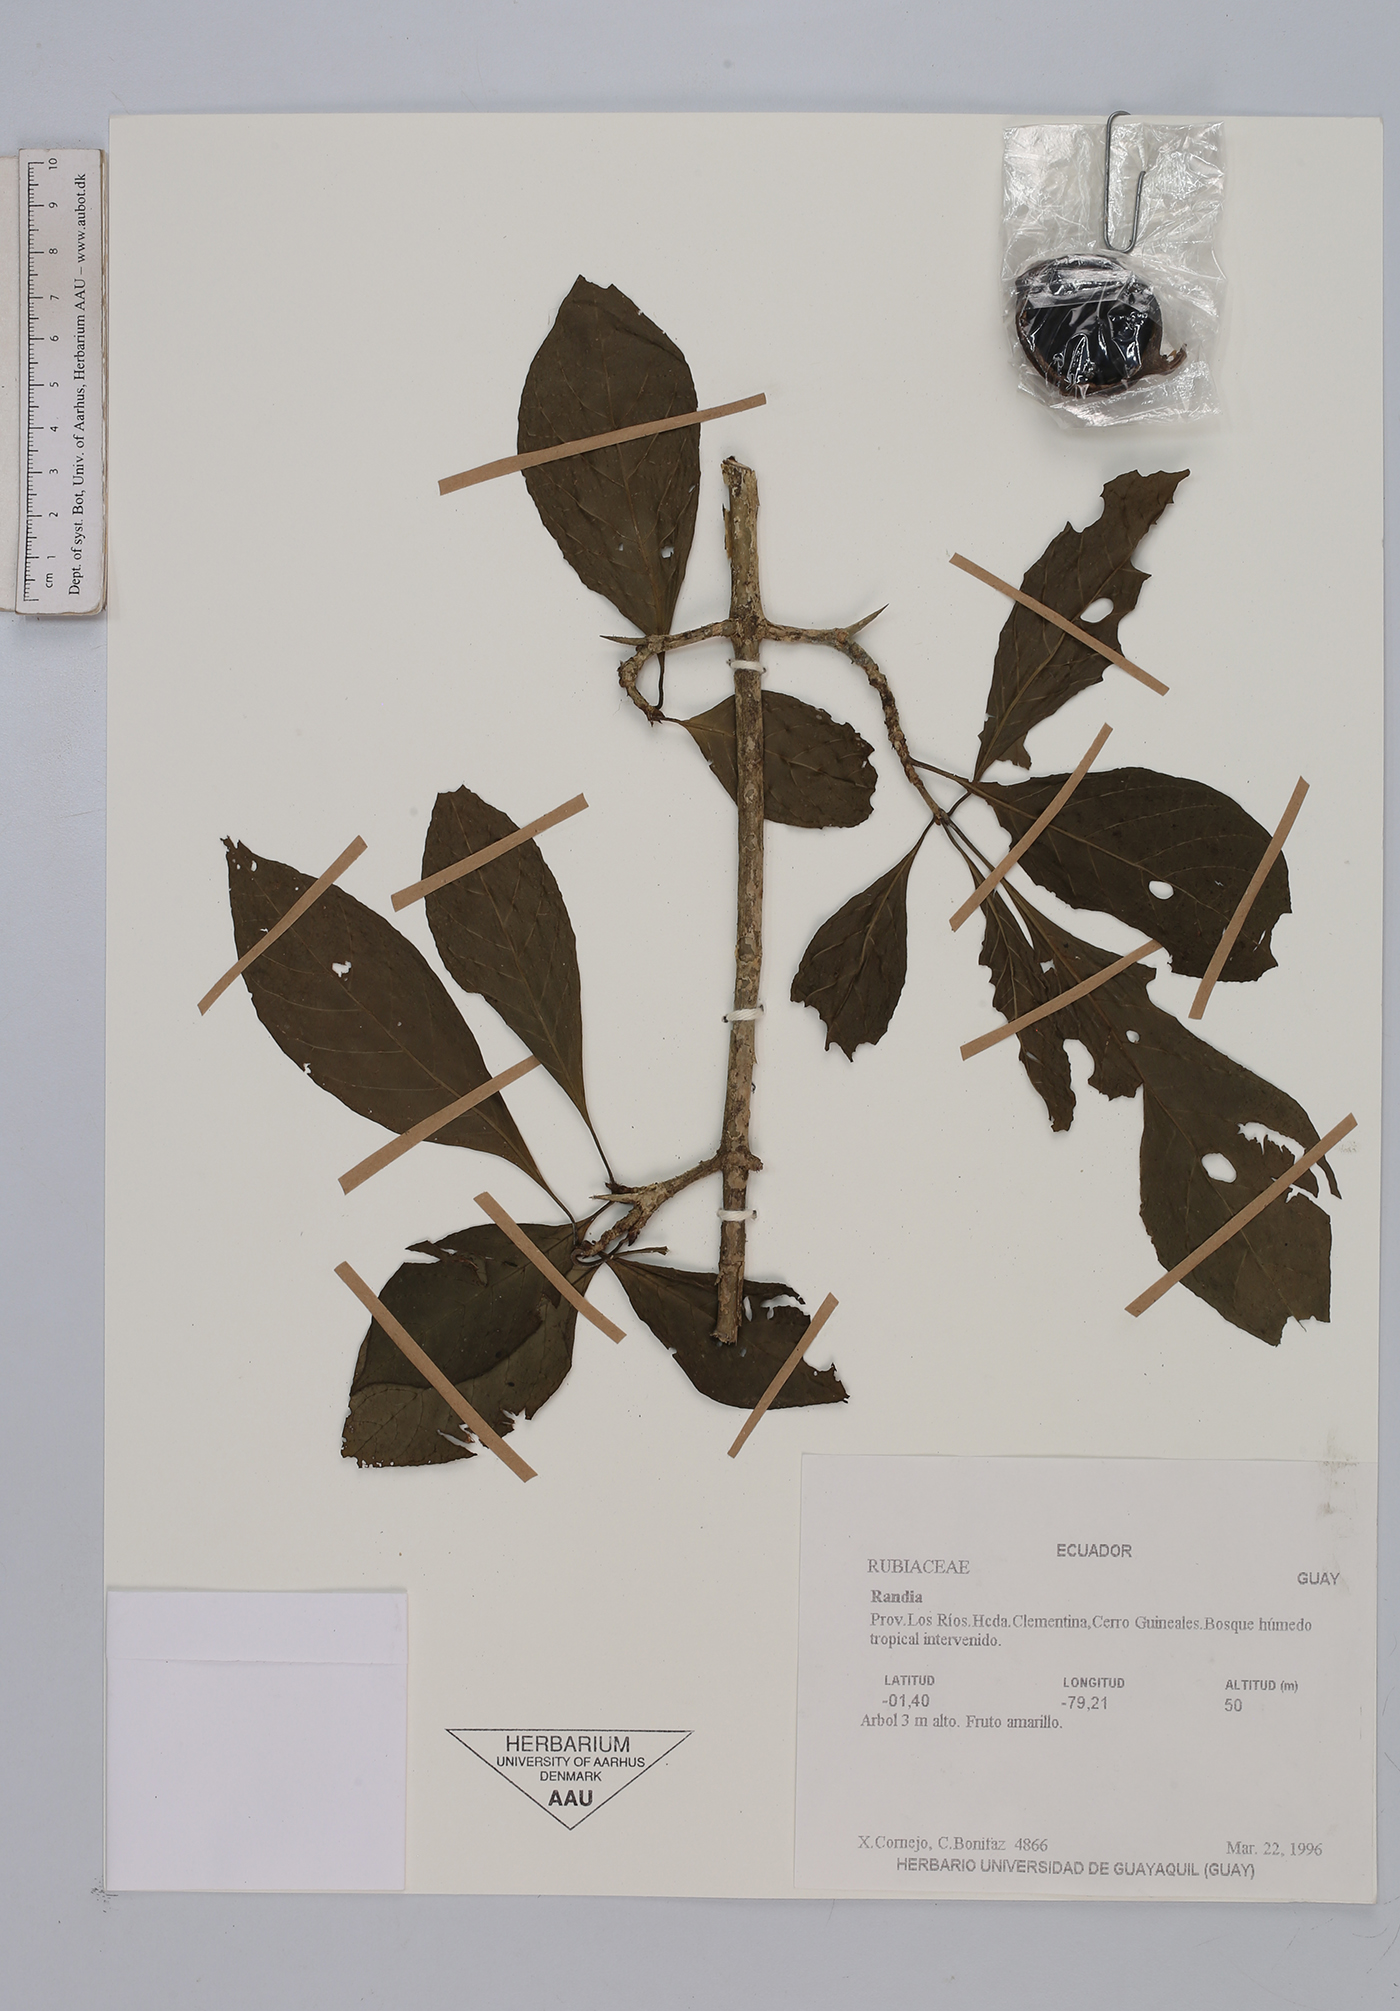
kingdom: Plantae
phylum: Tracheophyta
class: Magnoliopsida
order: Gentianales
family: Rubiaceae
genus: Randia
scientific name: Randia
